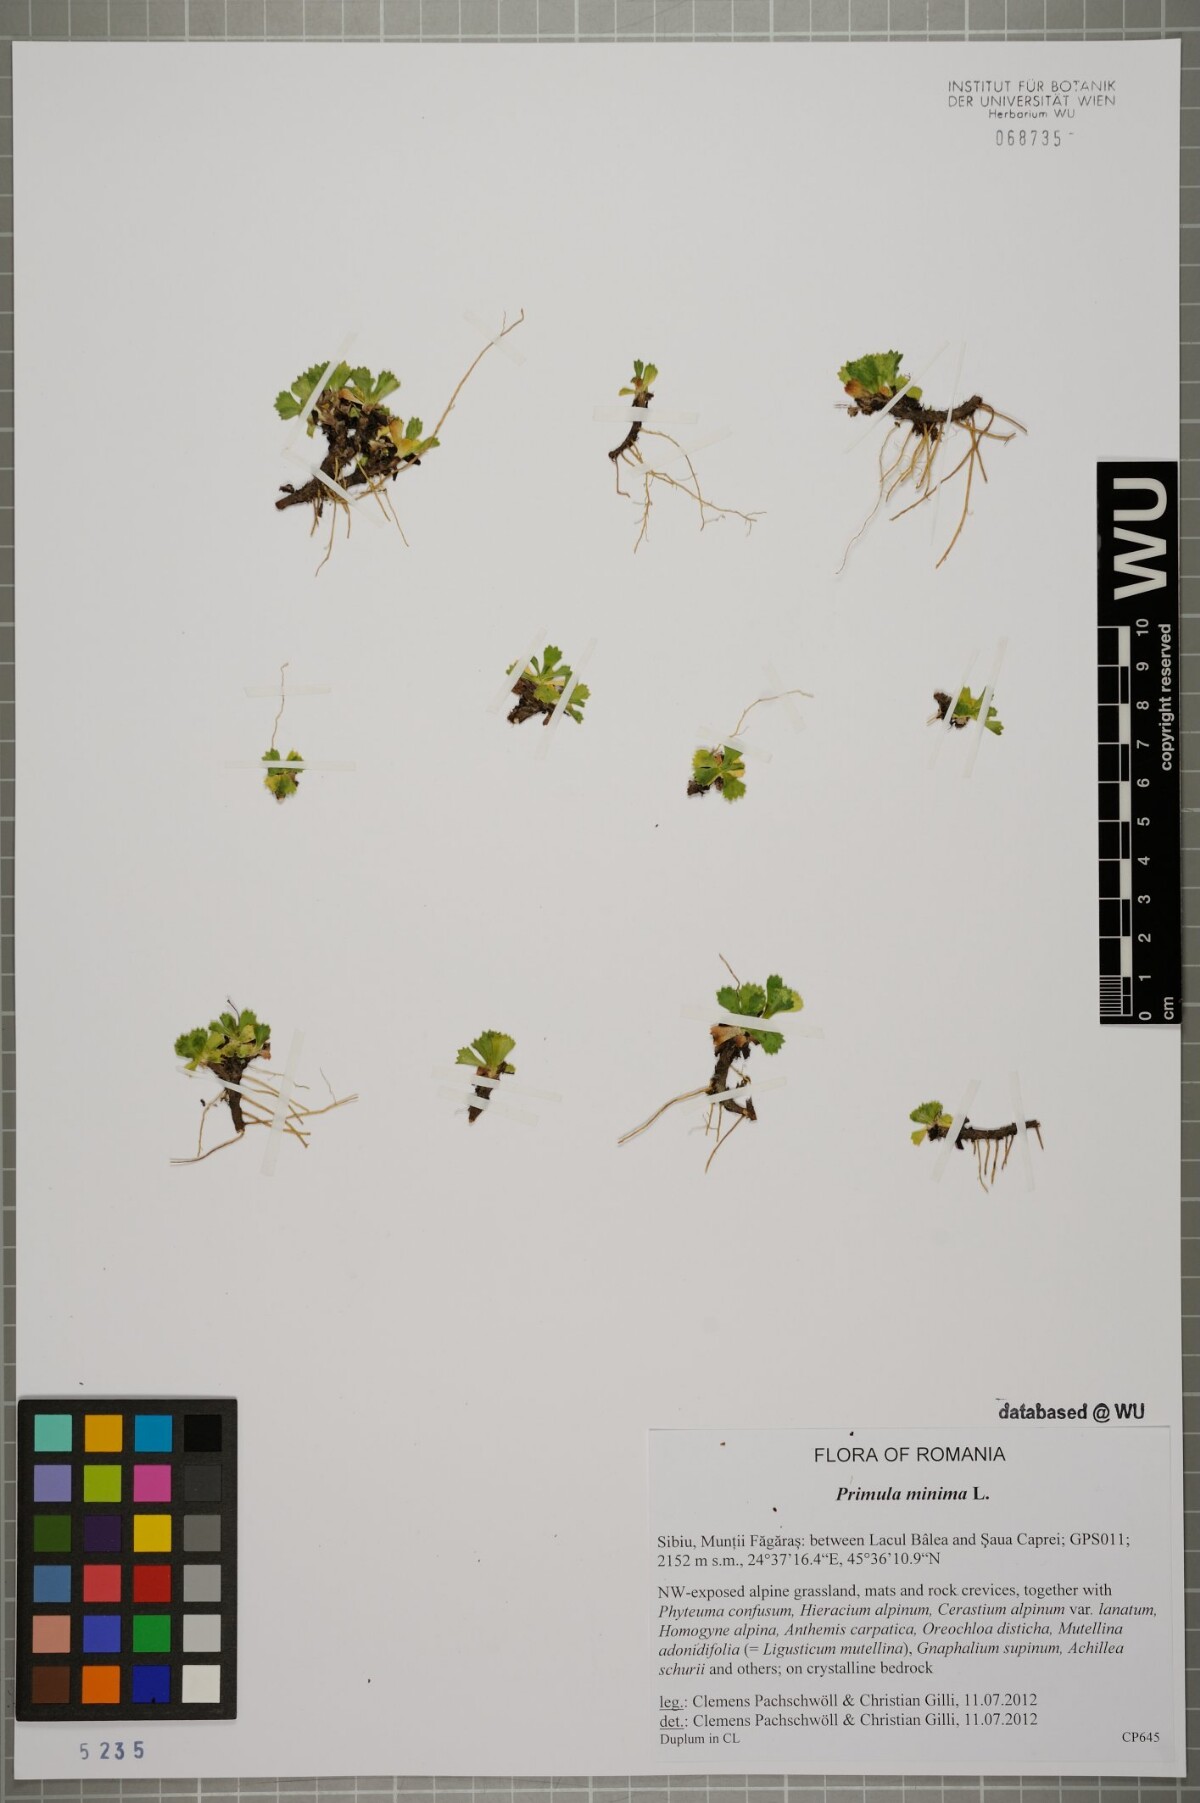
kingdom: Plantae
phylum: Tracheophyta
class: Magnoliopsida
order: Ericales
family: Primulaceae
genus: Primula
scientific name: Primula minima
